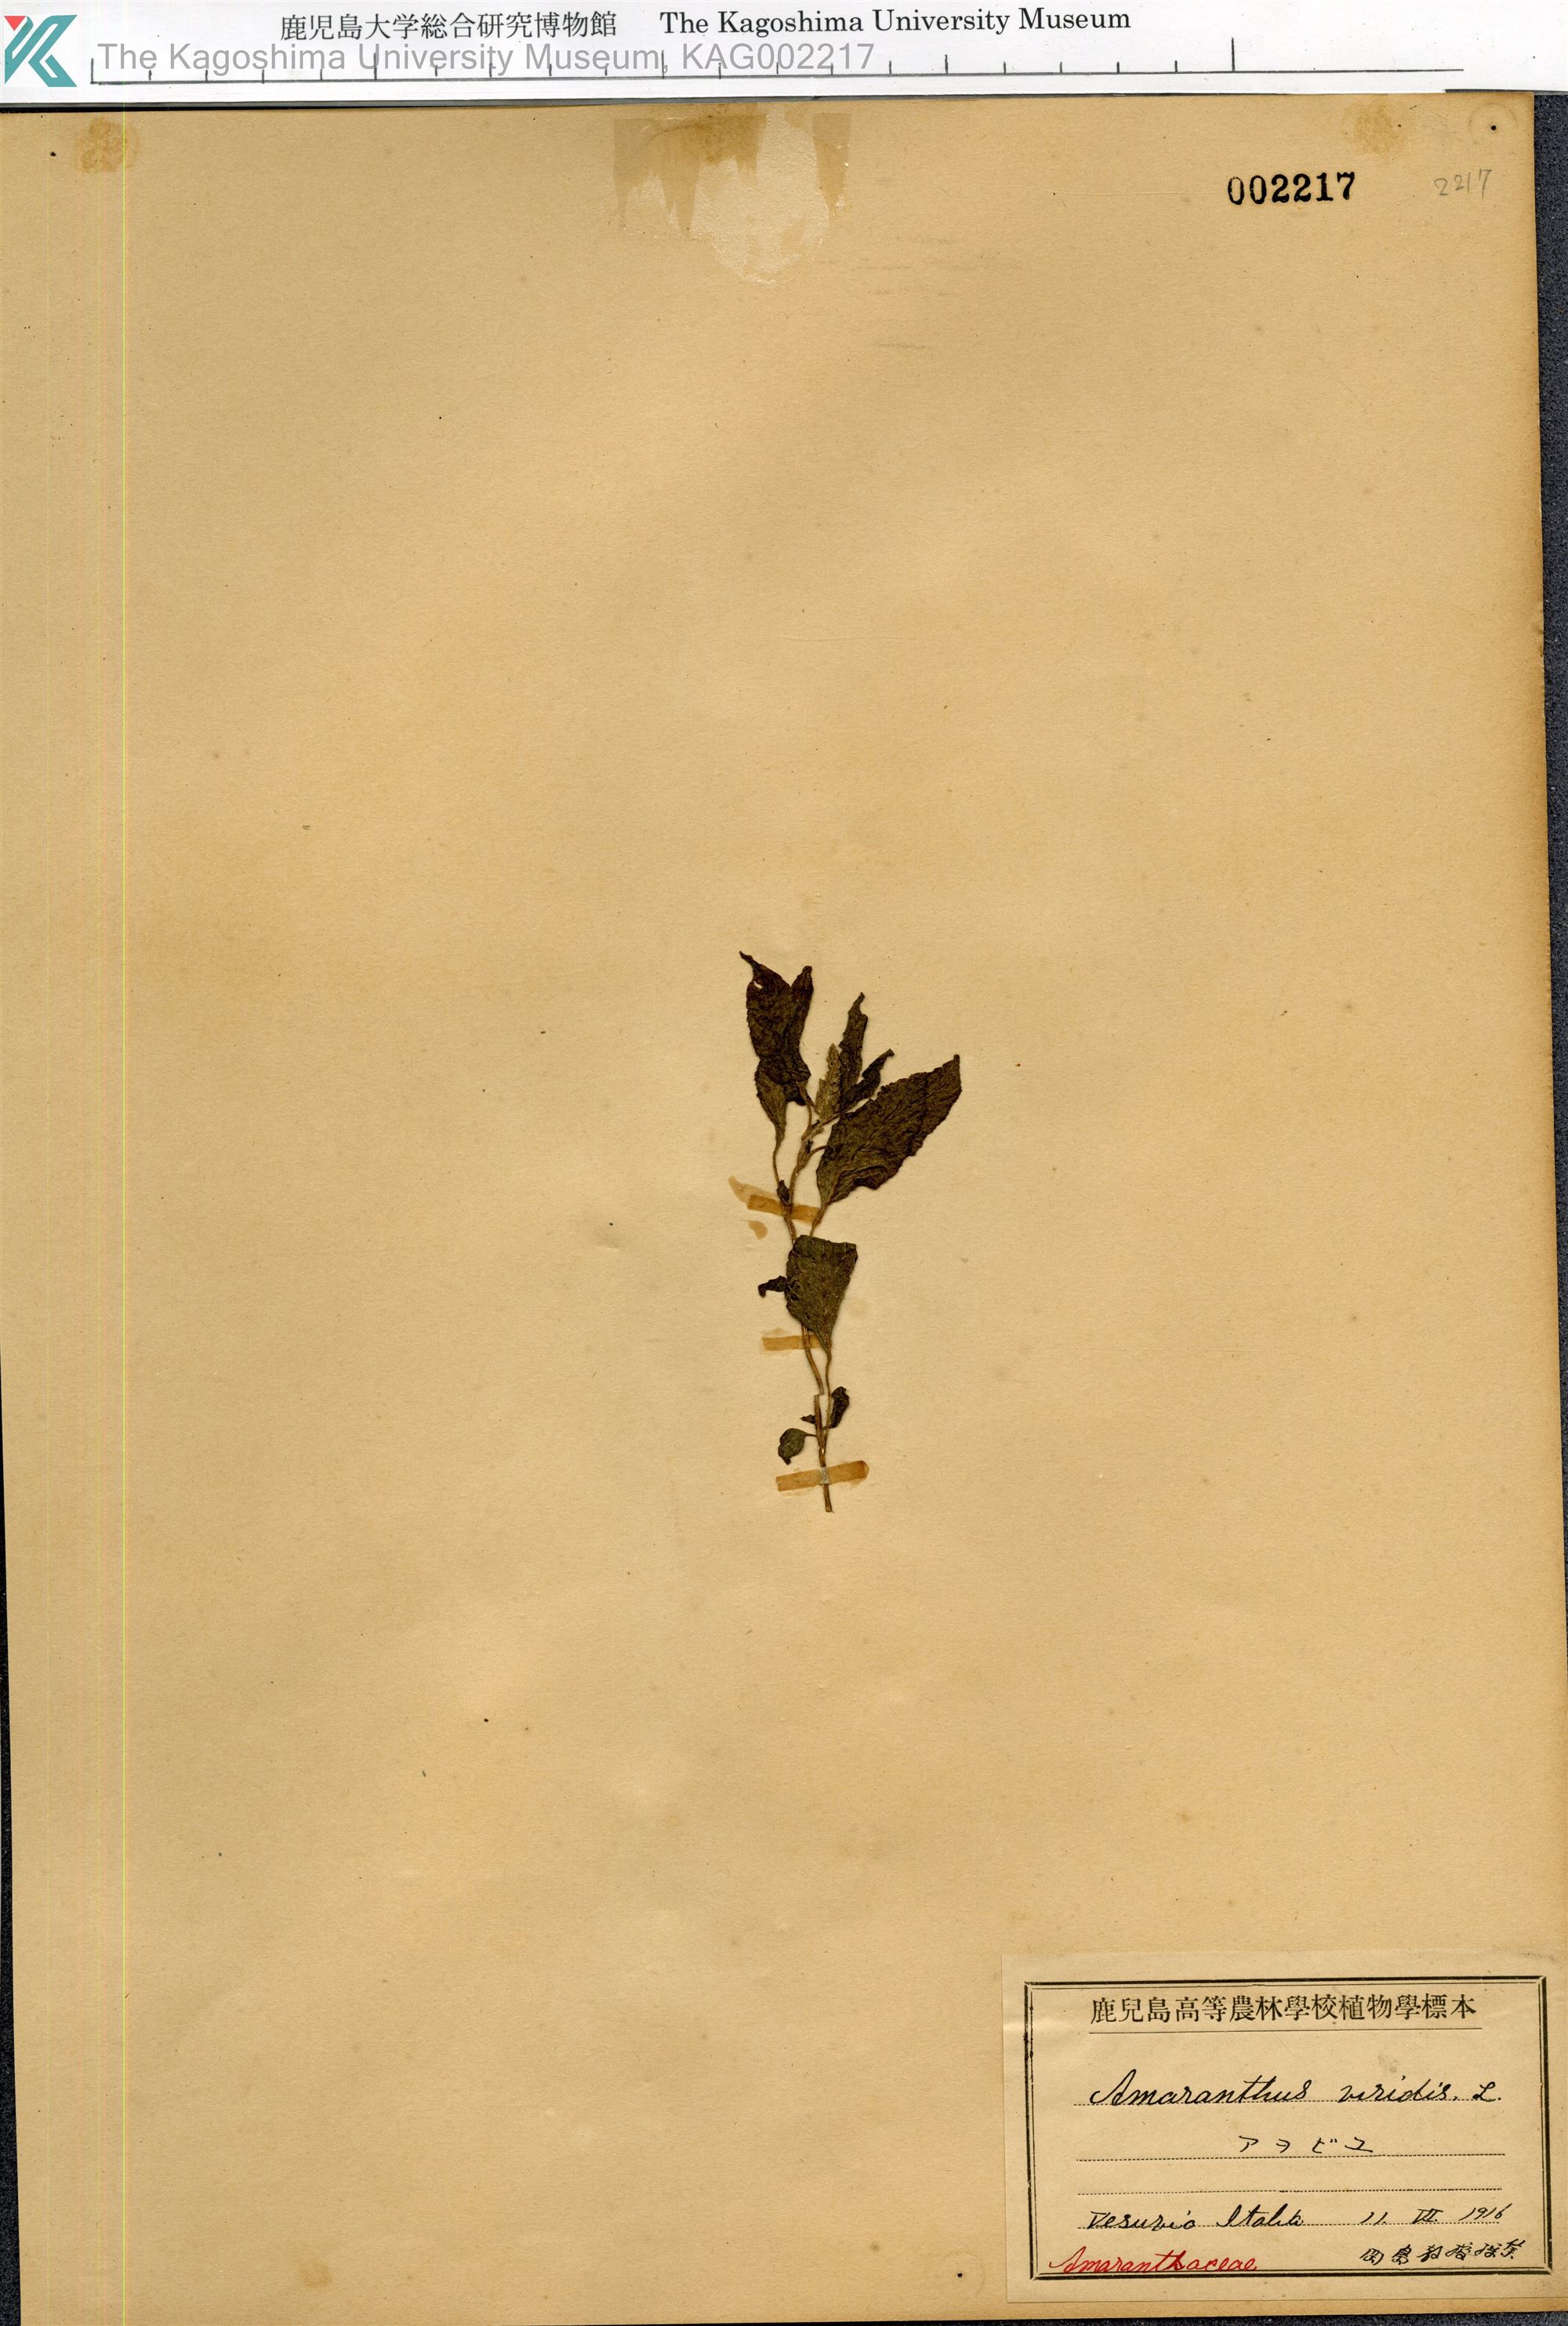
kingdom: Plantae
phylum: Tracheophyta
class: Magnoliopsida
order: Caryophyllales
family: Amaranthaceae
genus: Amaranthus
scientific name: Amaranthus viridis
